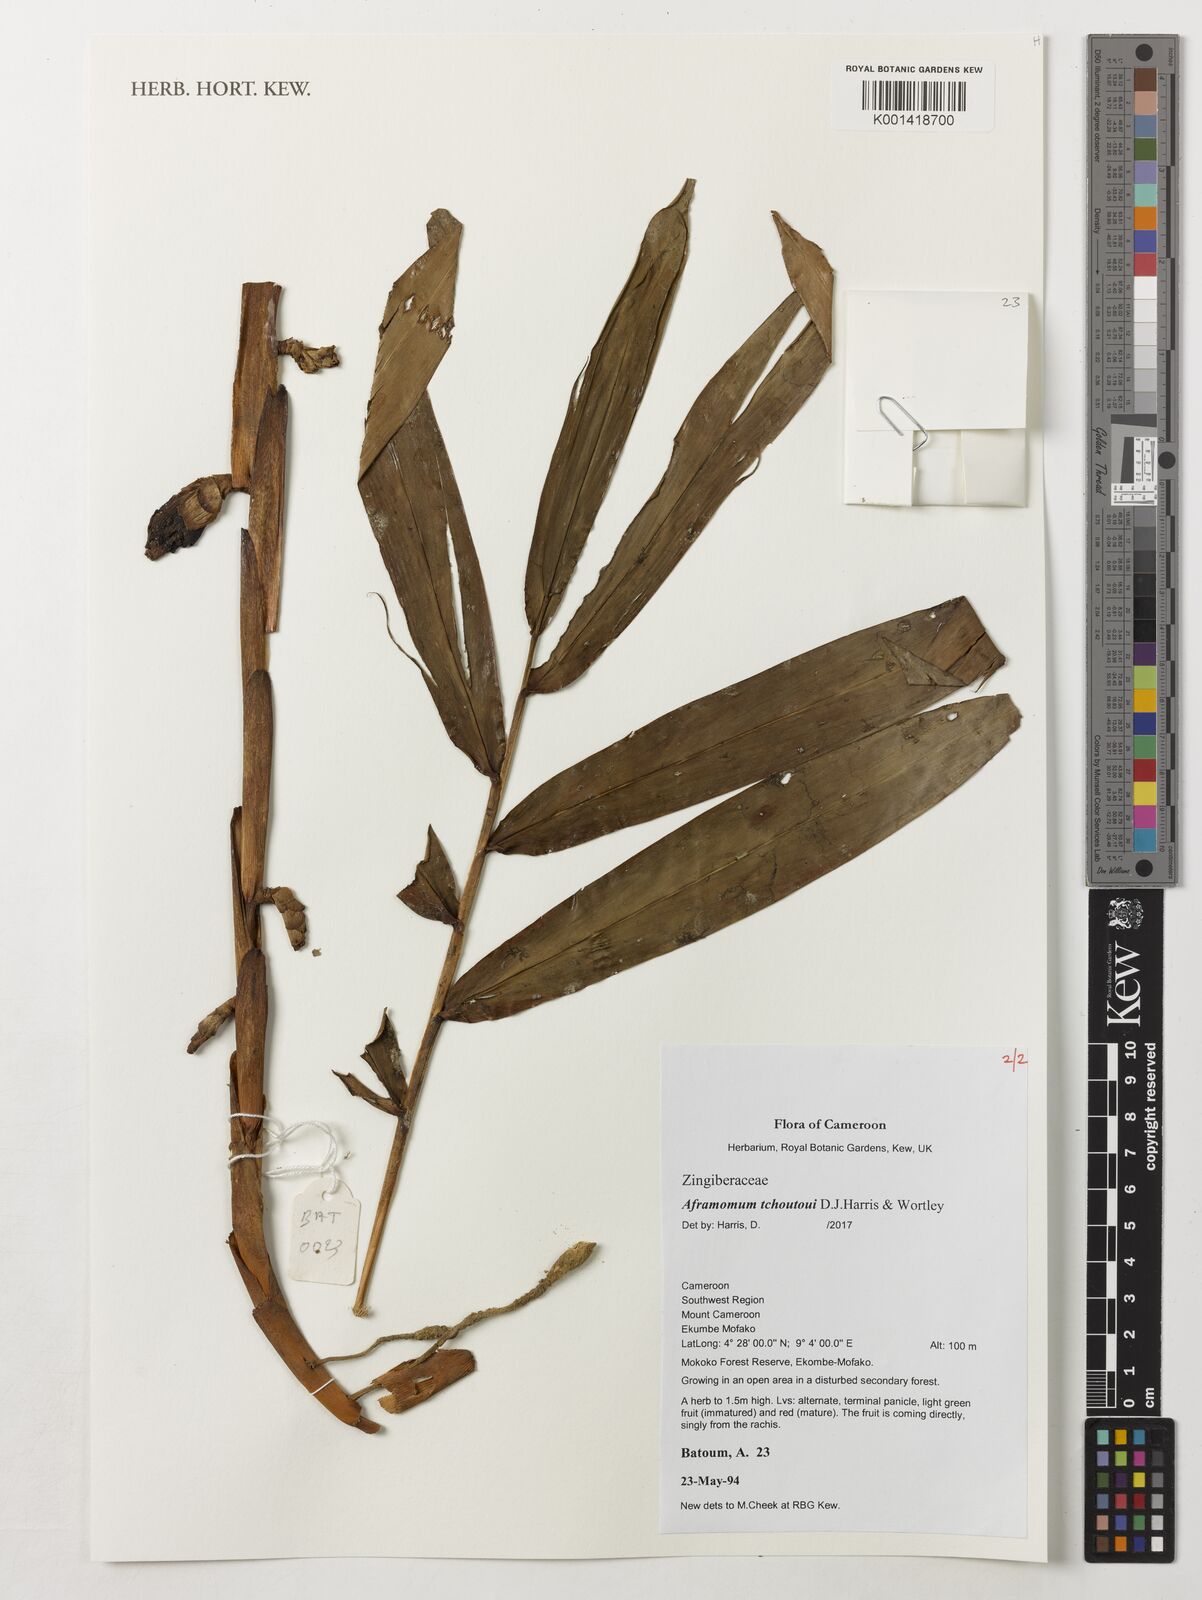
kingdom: Plantae
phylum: Tracheophyta
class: Liliopsida
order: Zingiberales
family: Zingiberaceae
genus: Aframomum
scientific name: Aframomum tchoutoui
